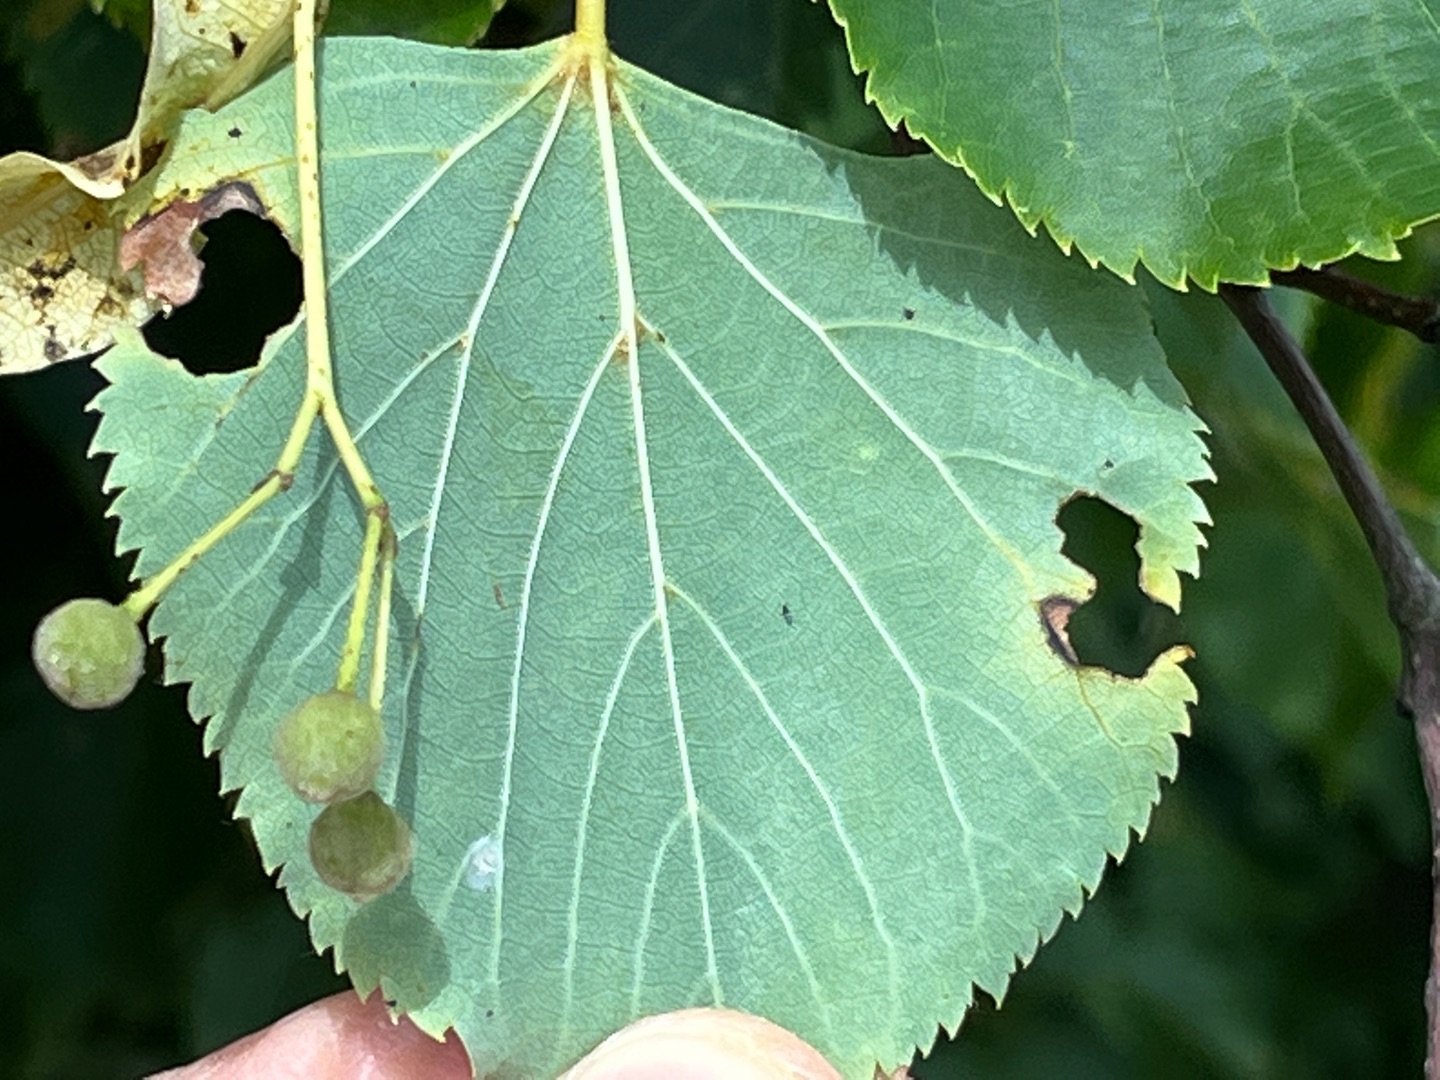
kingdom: Plantae
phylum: Tracheophyta
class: Magnoliopsida
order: Malvales
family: Malvaceae
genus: Tilia
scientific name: Tilia cordata
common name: Småbladet lind
